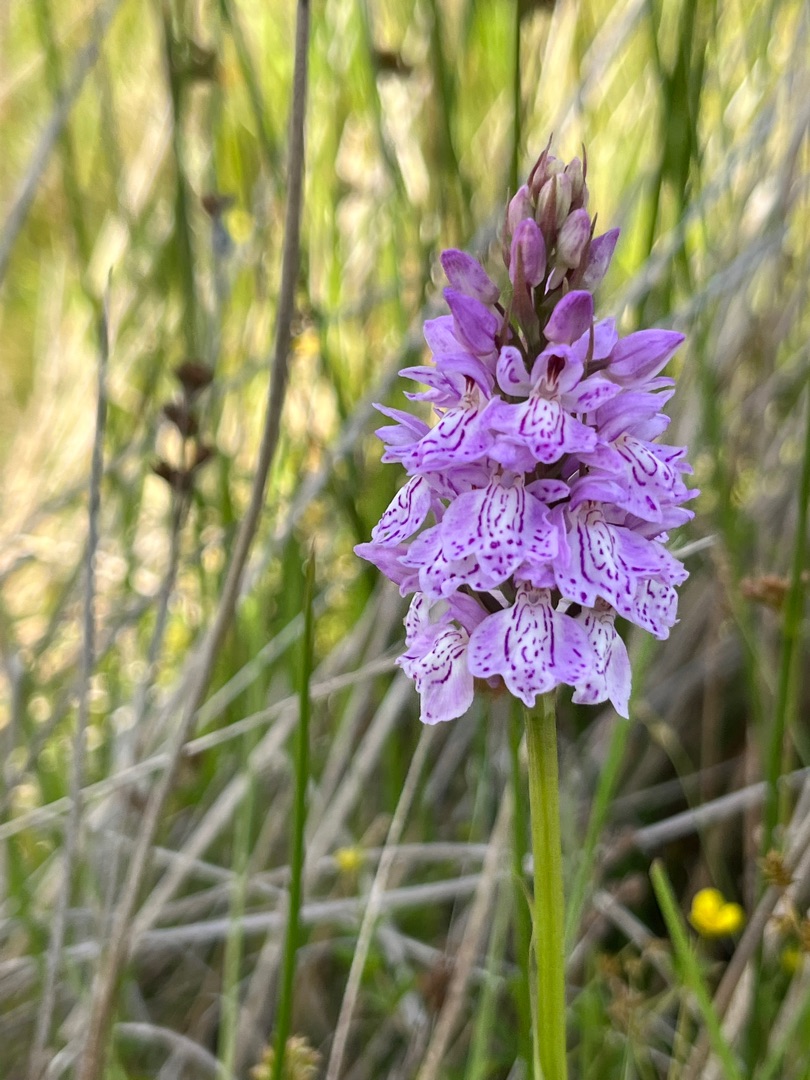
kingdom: Plantae
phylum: Tracheophyta
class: Liliopsida
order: Asparagales
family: Orchidaceae
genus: Dactylorhiza
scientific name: Dactylorhiza maculata
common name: Plettet gøgeurt
